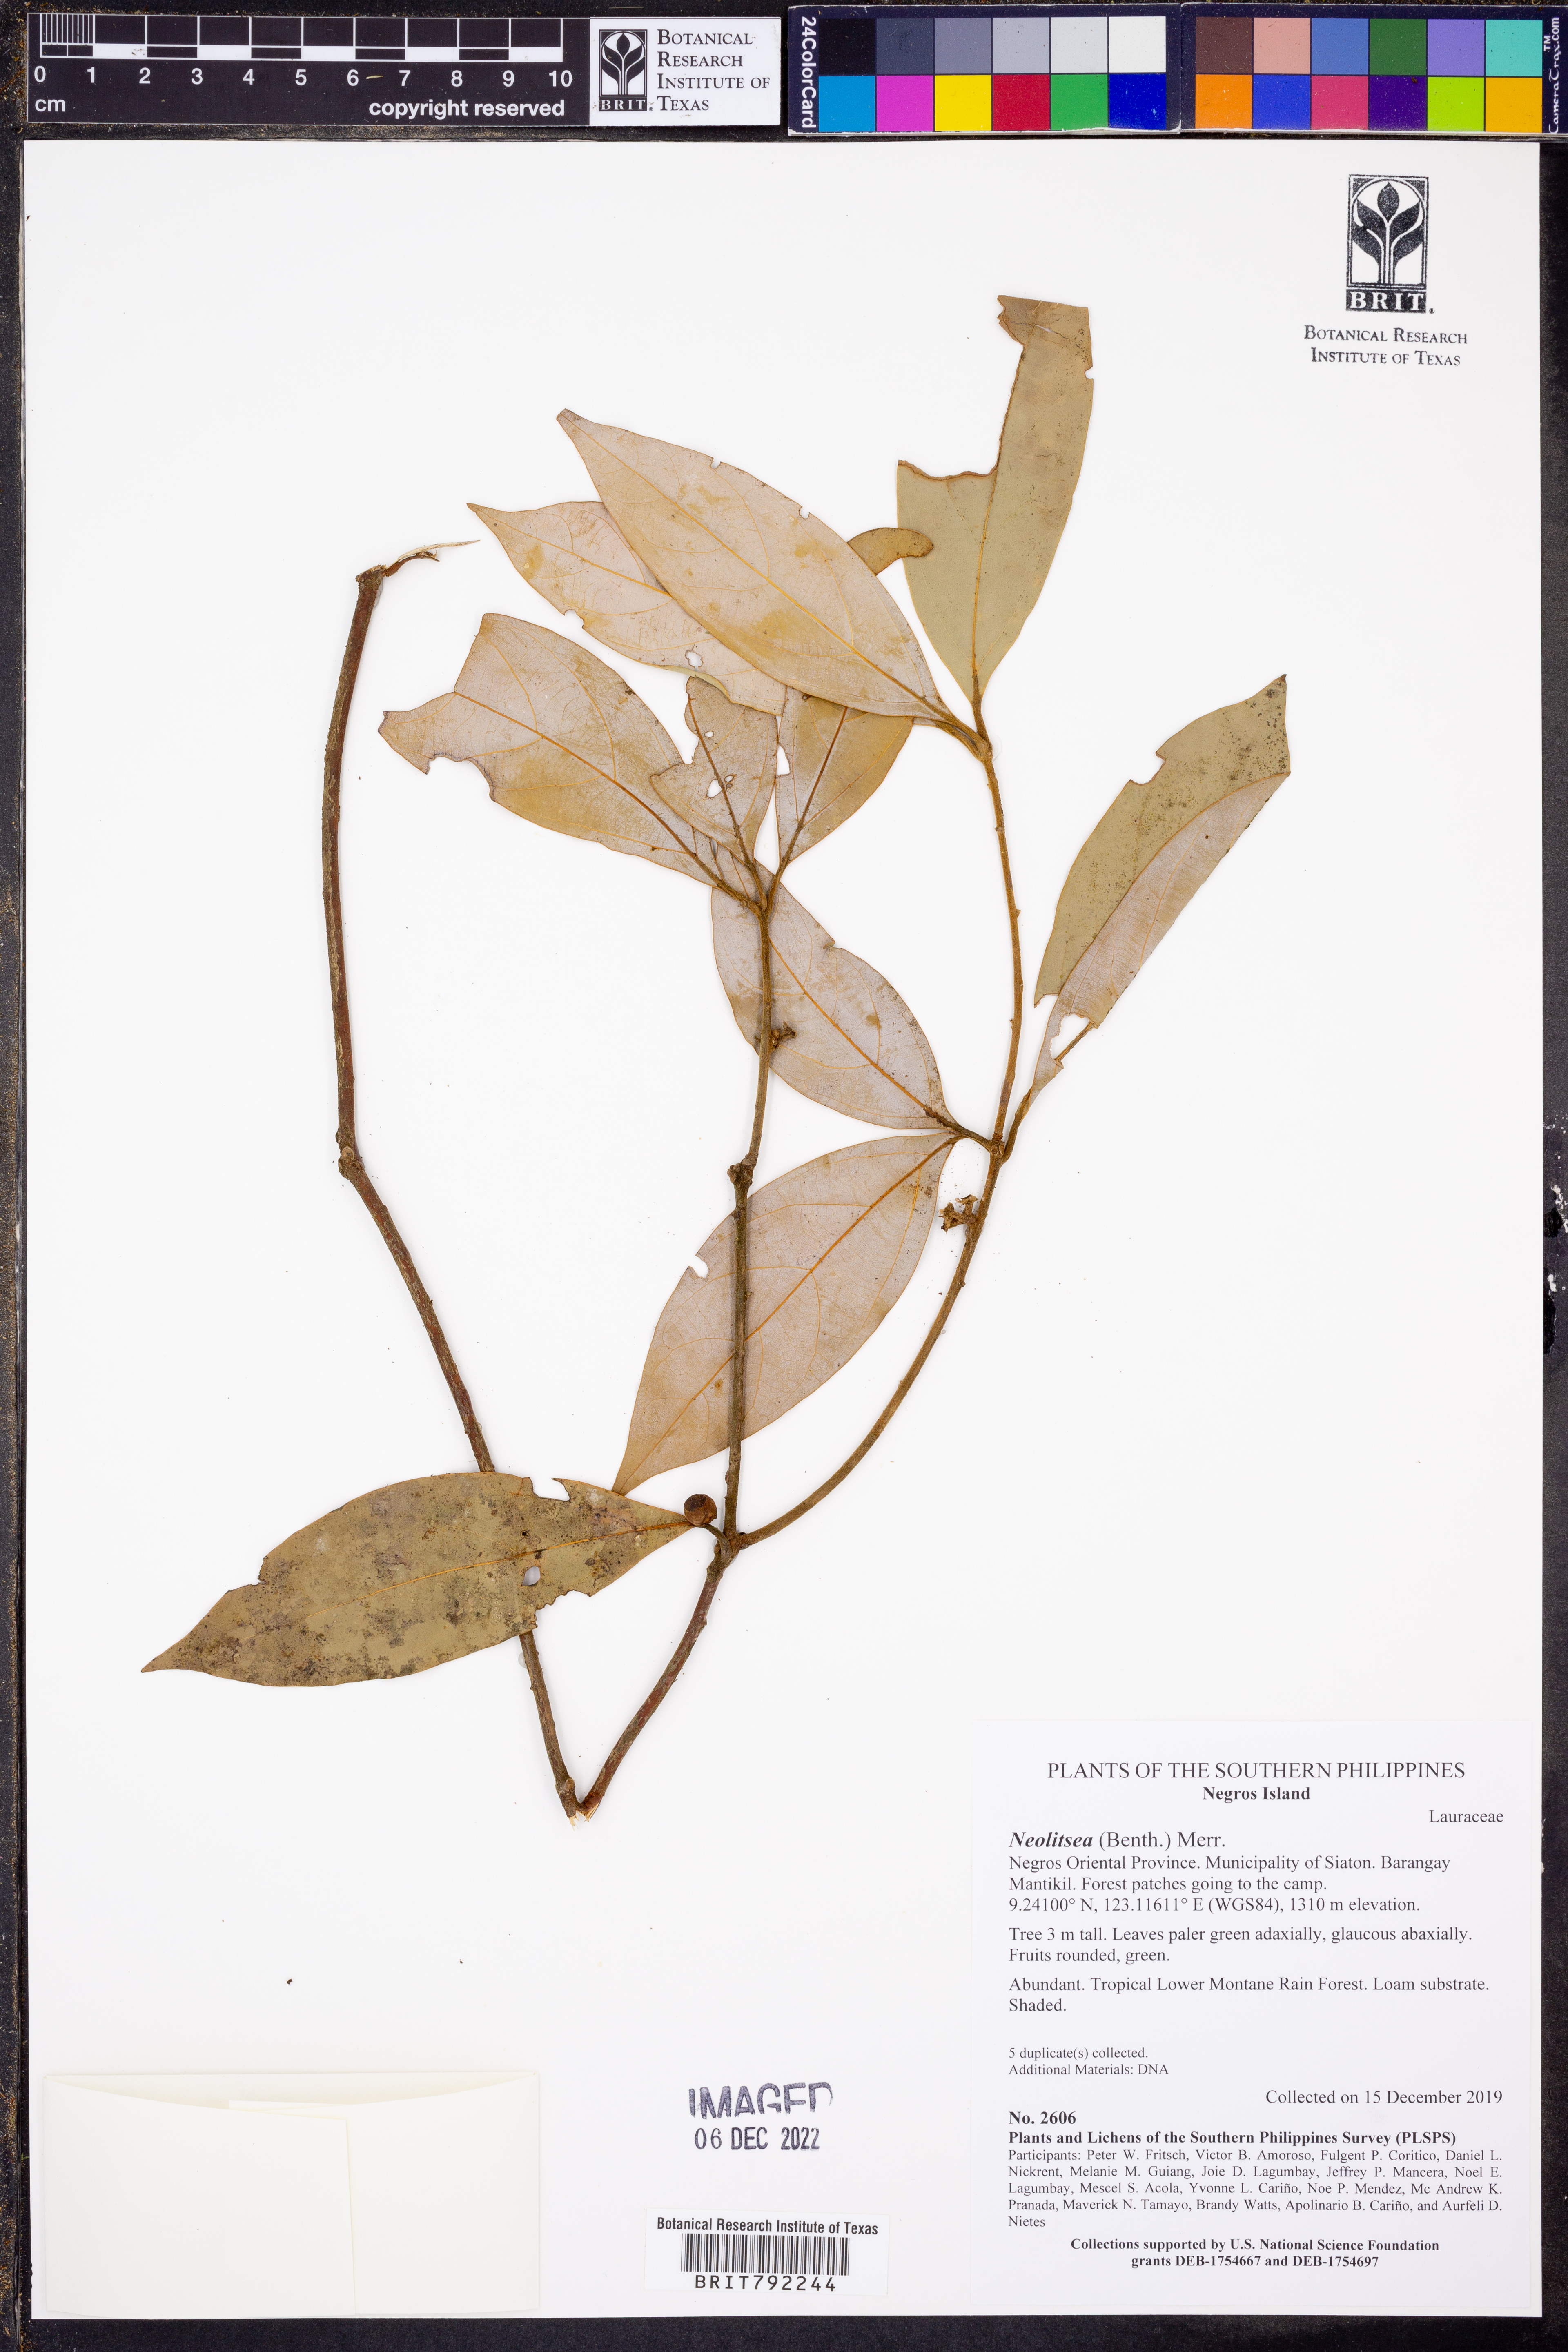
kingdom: Plantae
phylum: Tracheophyta
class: Magnoliopsida
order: Laurales
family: Lauraceae
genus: Neolitsea
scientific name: Neolitsea
